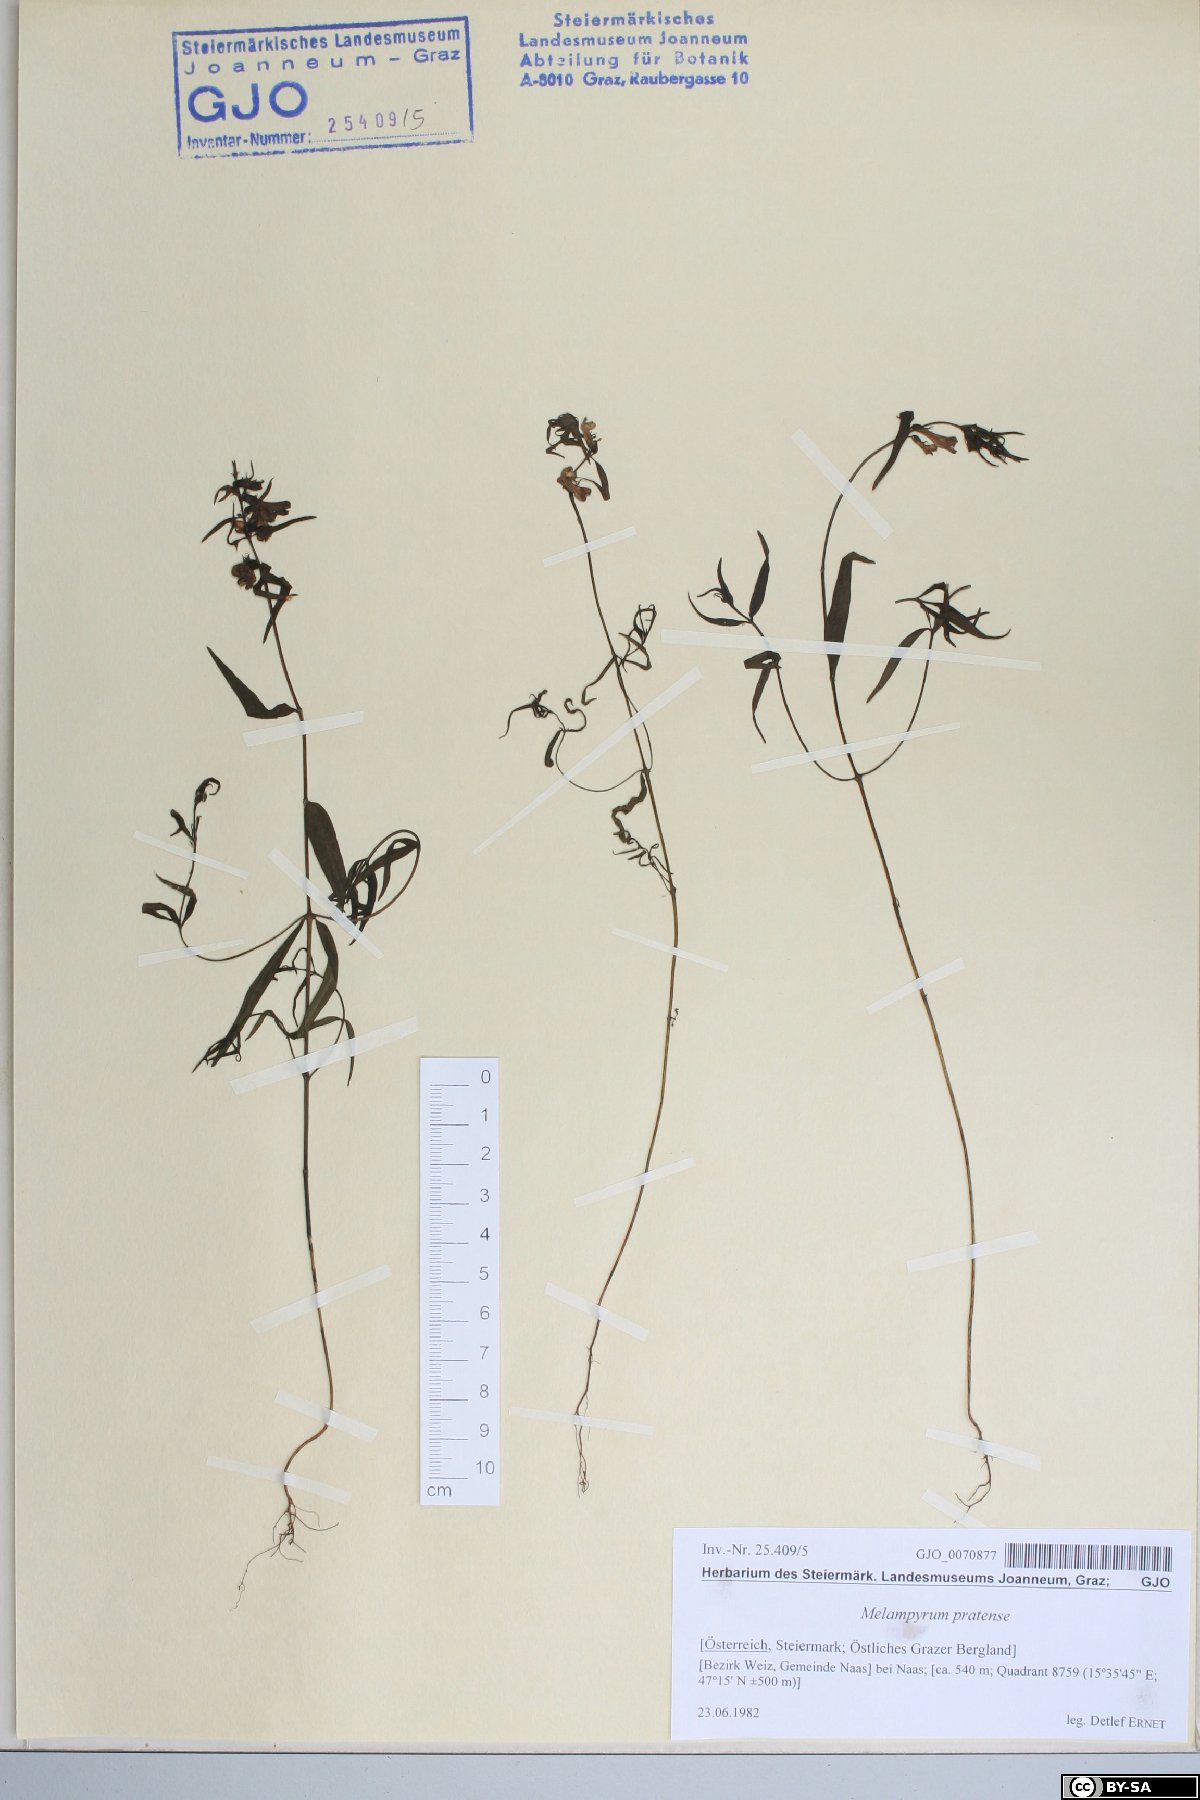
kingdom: Plantae
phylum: Tracheophyta
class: Magnoliopsida
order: Lamiales
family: Orobanchaceae
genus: Melampyrum
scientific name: Melampyrum pratense
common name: Common cow-wheat
